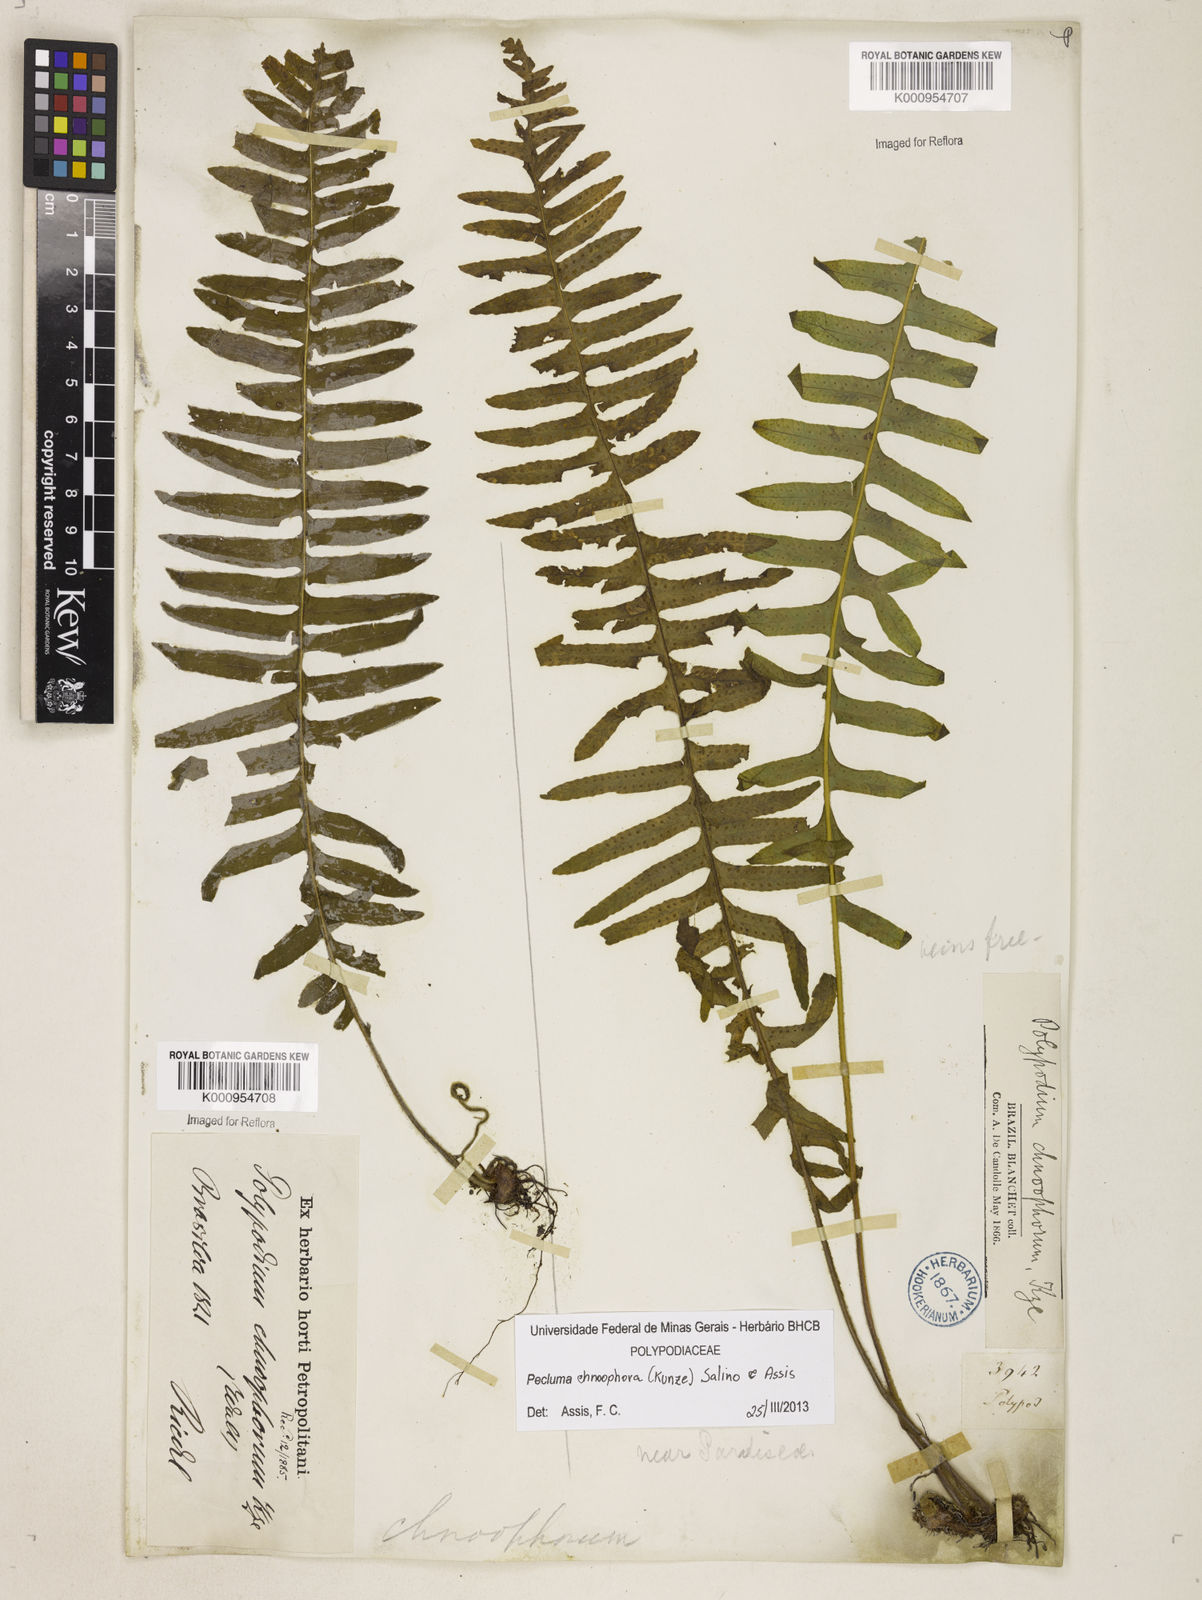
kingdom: Plantae
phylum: Tracheophyta
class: Polypodiopsida
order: Polypodiales
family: Polypodiaceae
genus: Pecluma
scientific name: Pecluma chnoophora
